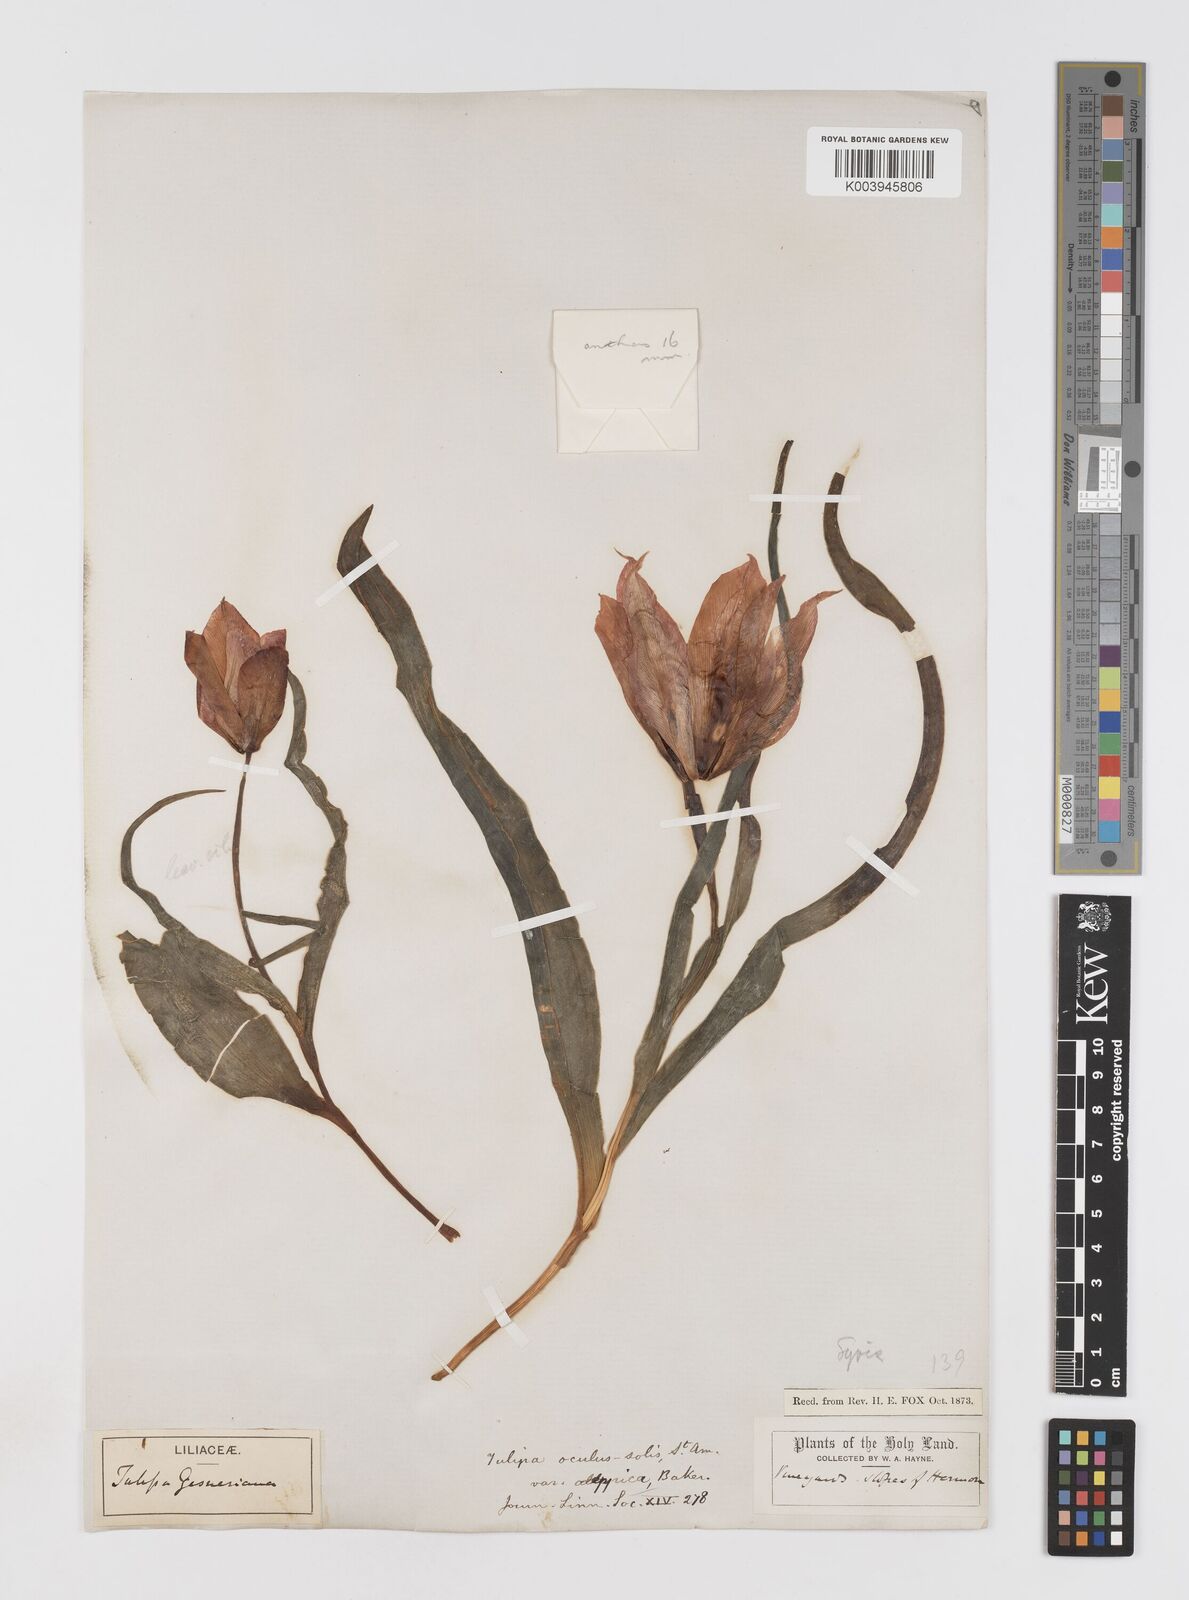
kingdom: Plantae
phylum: Tracheophyta
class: Liliopsida
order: Liliales
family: Liliaceae
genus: Tulipa
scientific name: Tulipa aleppensis
